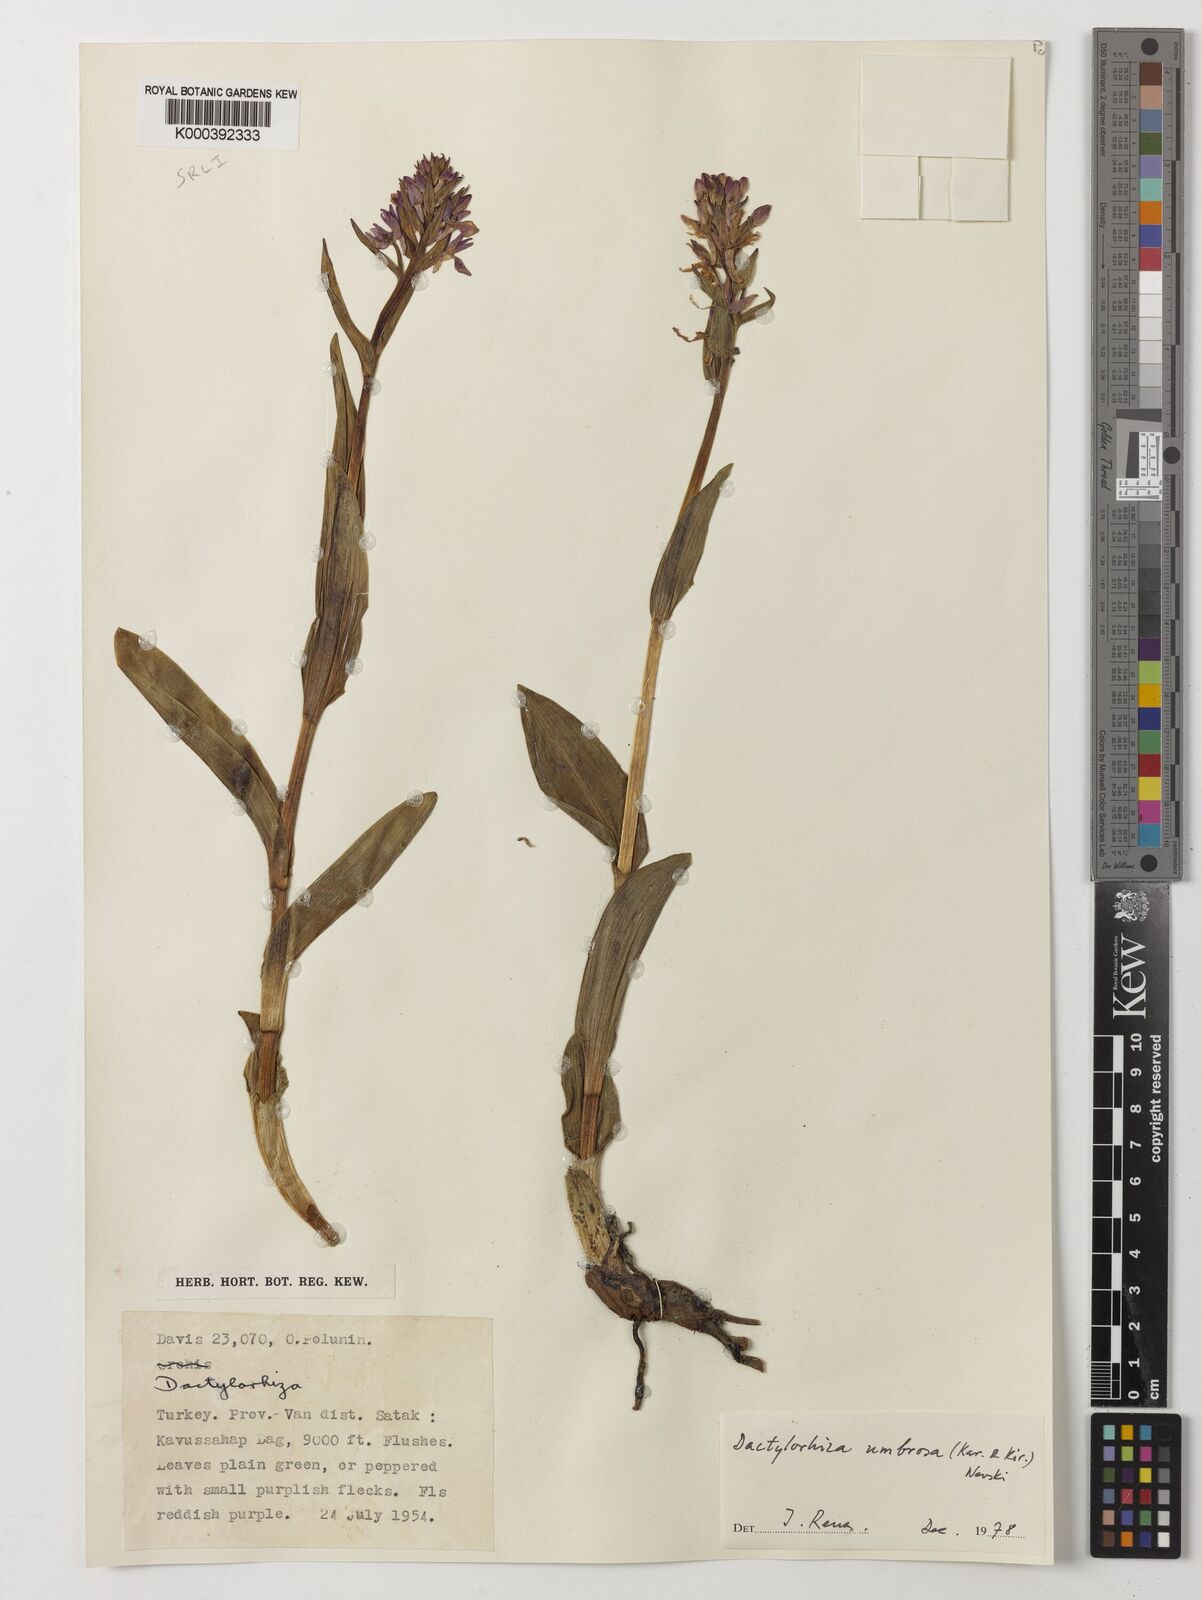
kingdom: Plantae
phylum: Tracheophyta
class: Liliopsida
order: Asparagales
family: Orchidaceae
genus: Dactylorhiza
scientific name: Dactylorhiza
